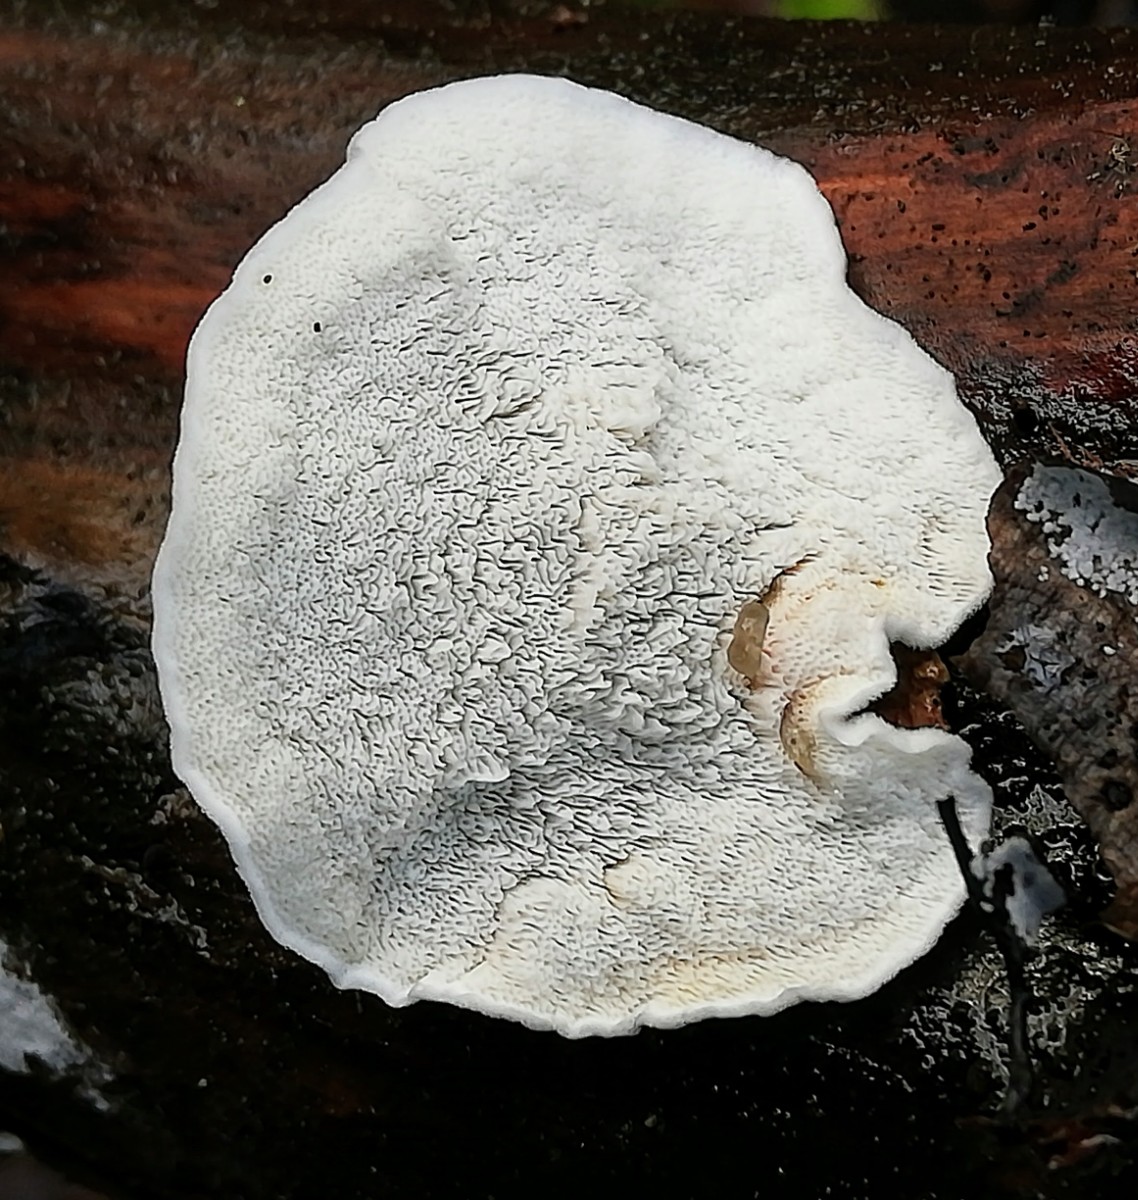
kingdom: Fungi
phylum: Basidiomycota
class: Agaricomycetes
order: Polyporales
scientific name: Polyporales
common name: poresvampordenen
